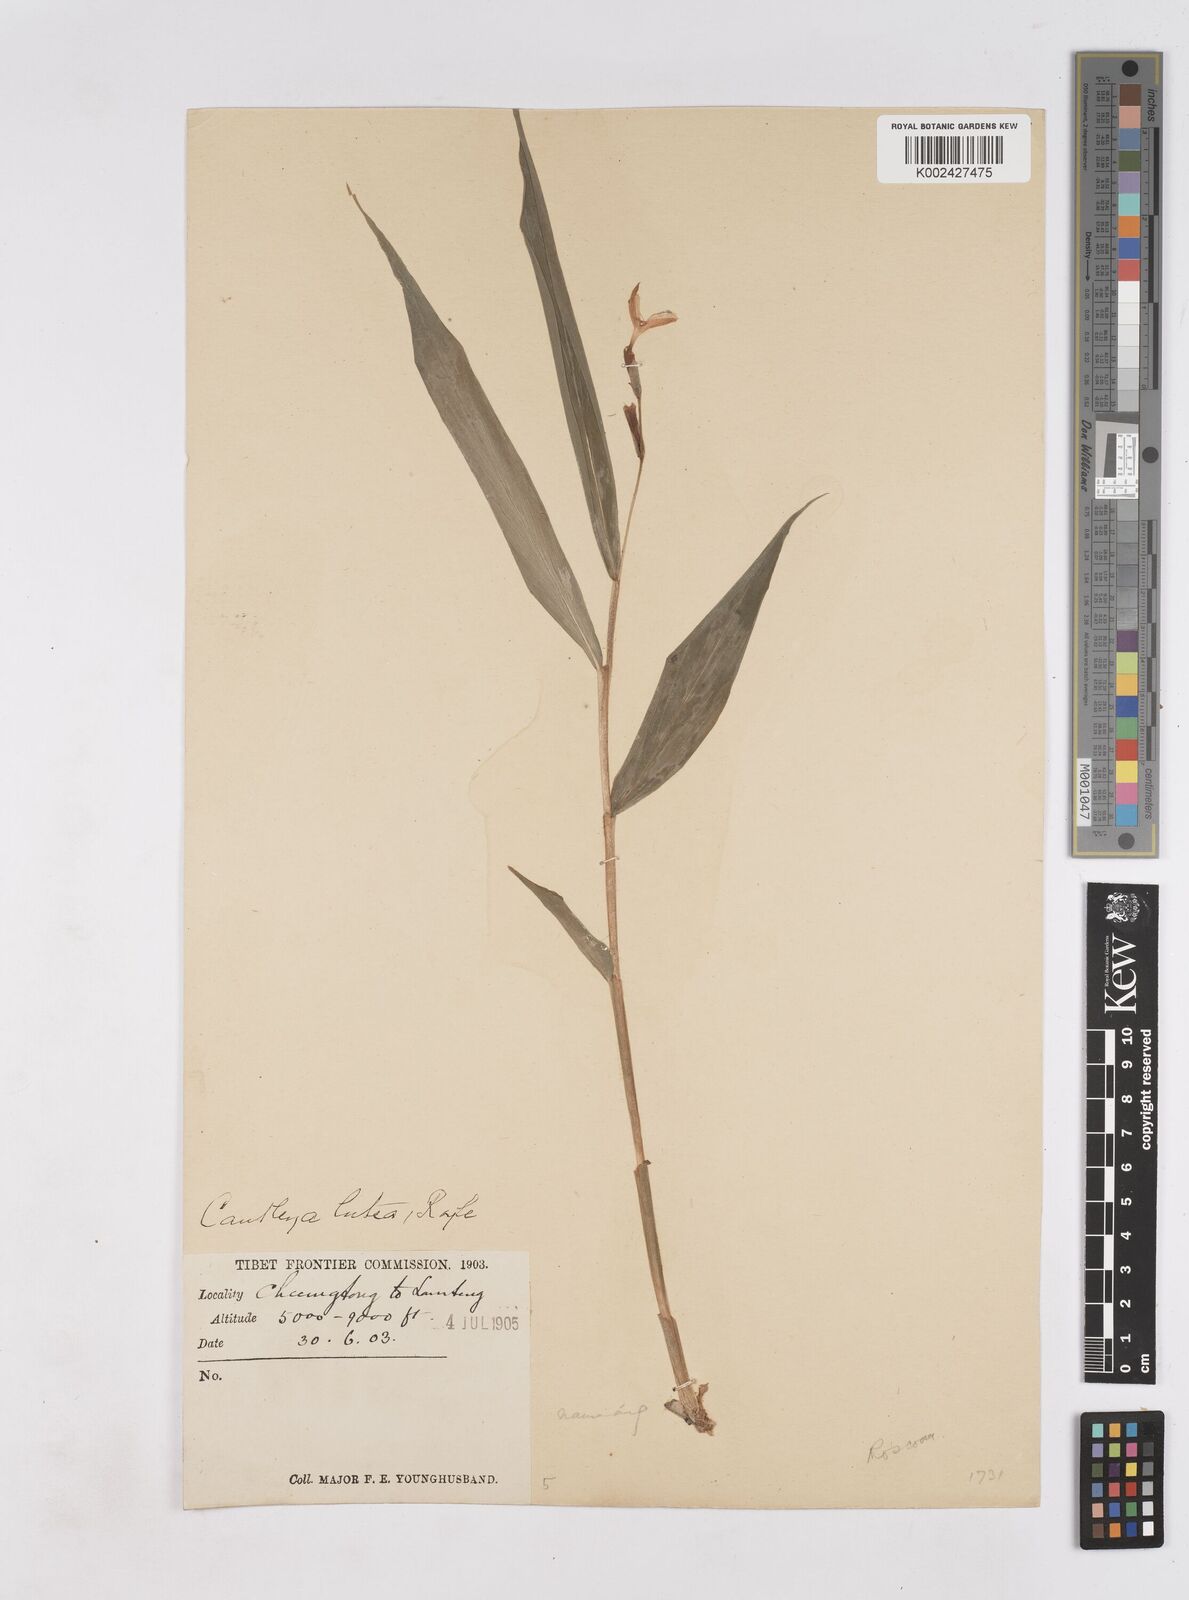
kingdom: Plantae
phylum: Tracheophyta
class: Liliopsida
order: Zingiberales
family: Zingiberaceae
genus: Cautleya
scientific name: Cautleya gracilis
